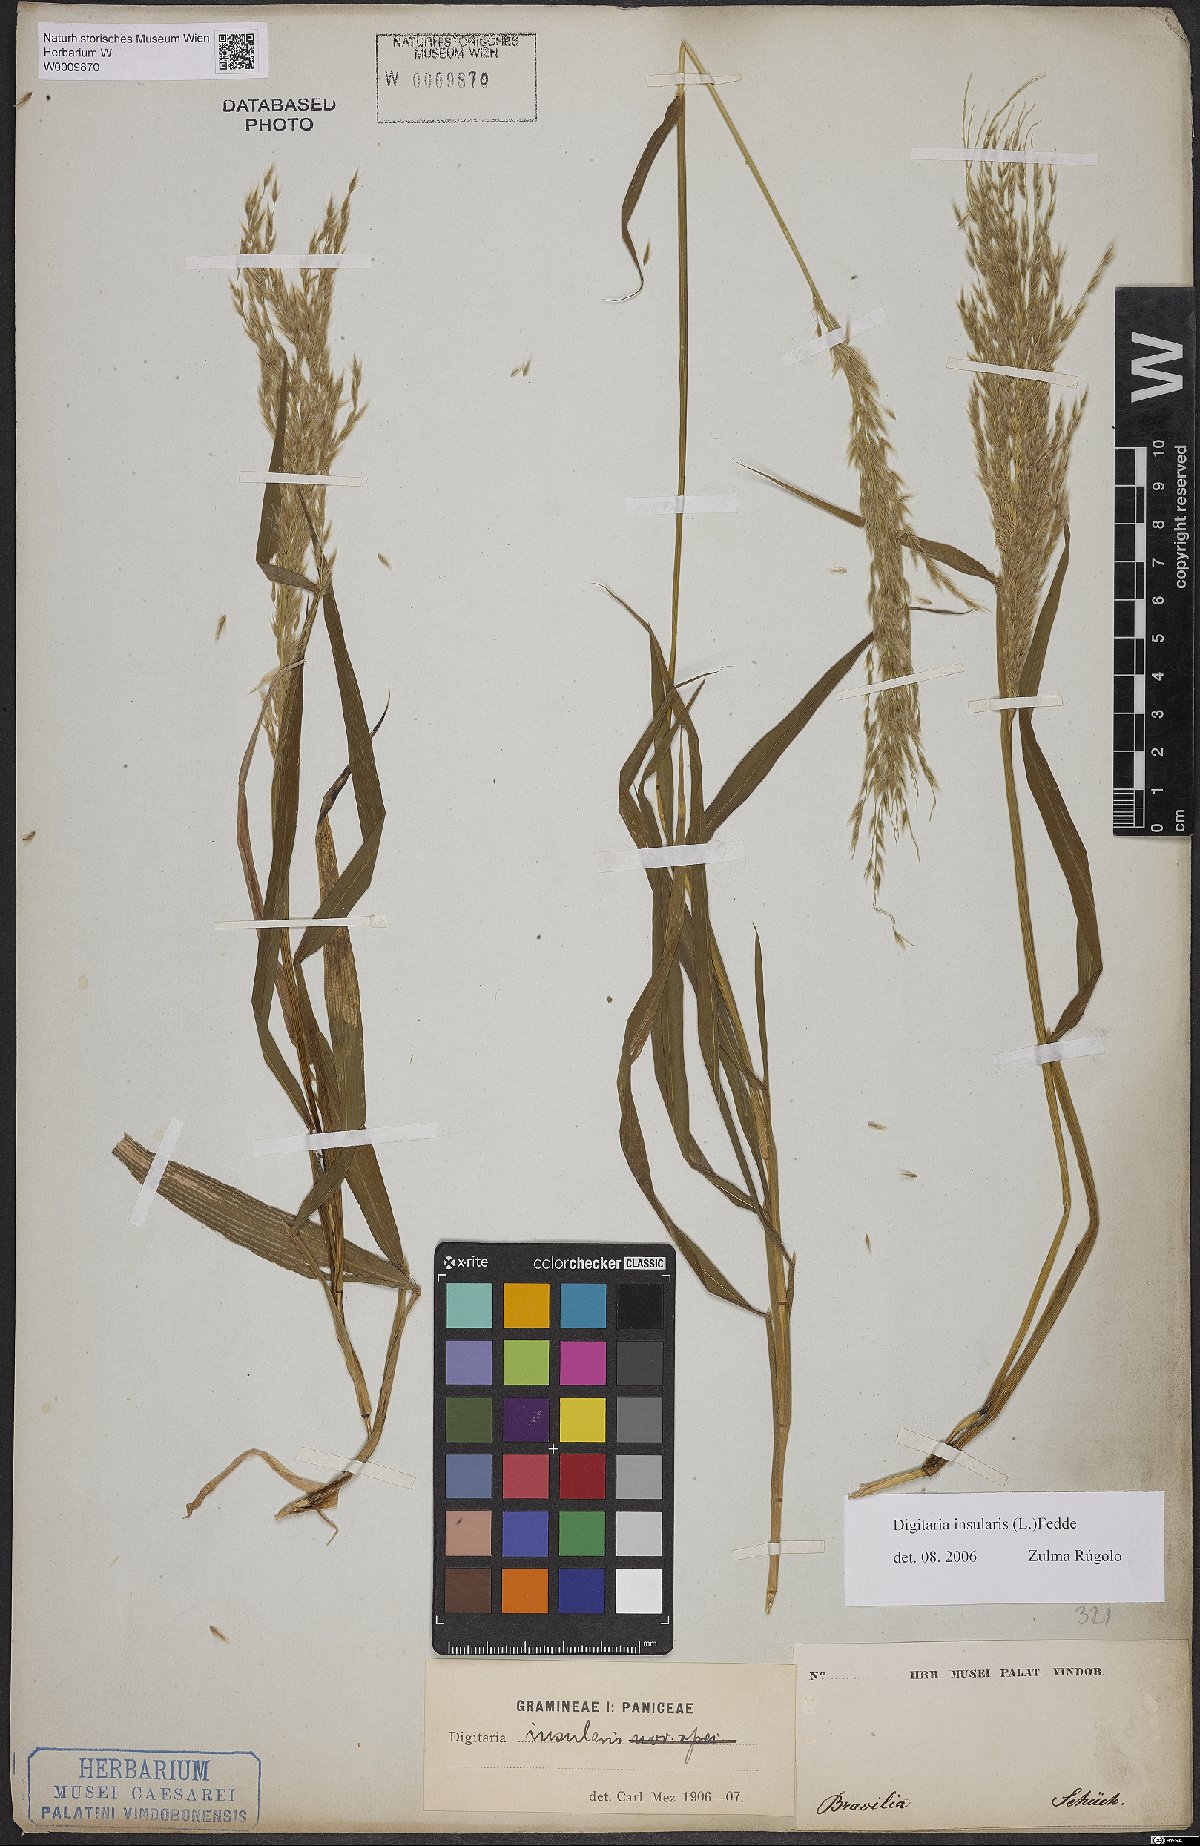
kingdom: Plantae
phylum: Tracheophyta
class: Liliopsida
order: Poales
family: Poaceae
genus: Digitaria
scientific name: Digitaria insularis
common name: Sourgrass
